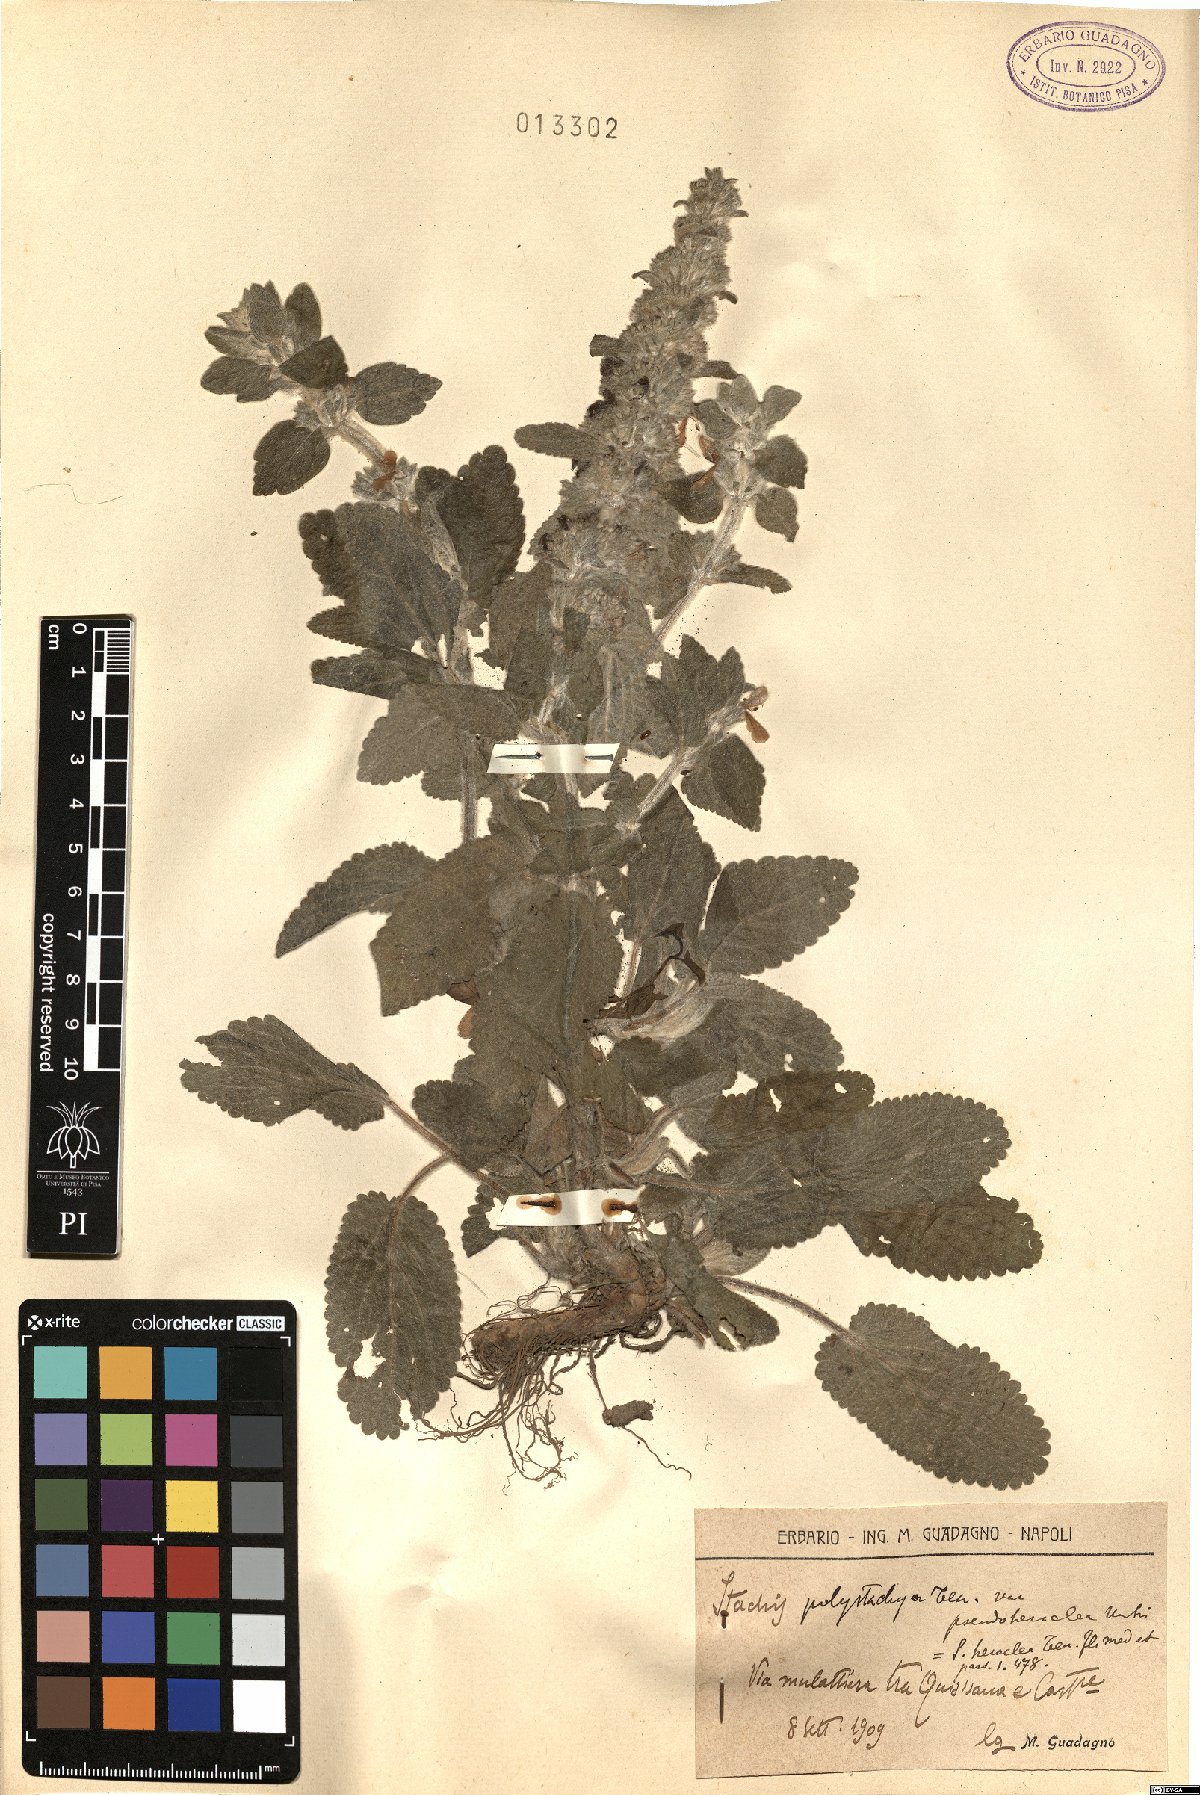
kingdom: Plantae
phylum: Tracheophyta
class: Magnoliopsida
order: Lamiales
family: Lamiaceae
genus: Stachys
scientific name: Stachys heraclea
